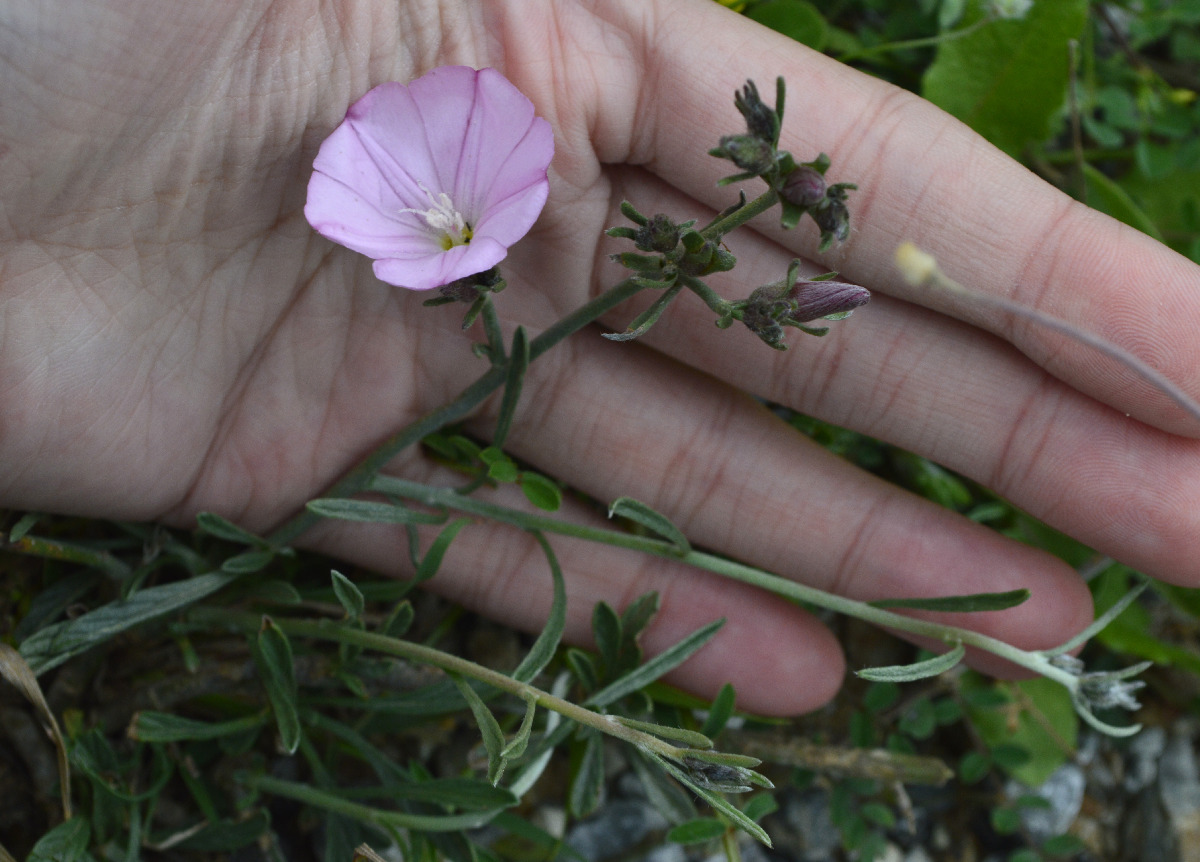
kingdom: Plantae
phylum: Tracheophyta
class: Magnoliopsida
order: Lamiales
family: Lamiaceae
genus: Micromeria
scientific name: Micromeria nervosa
